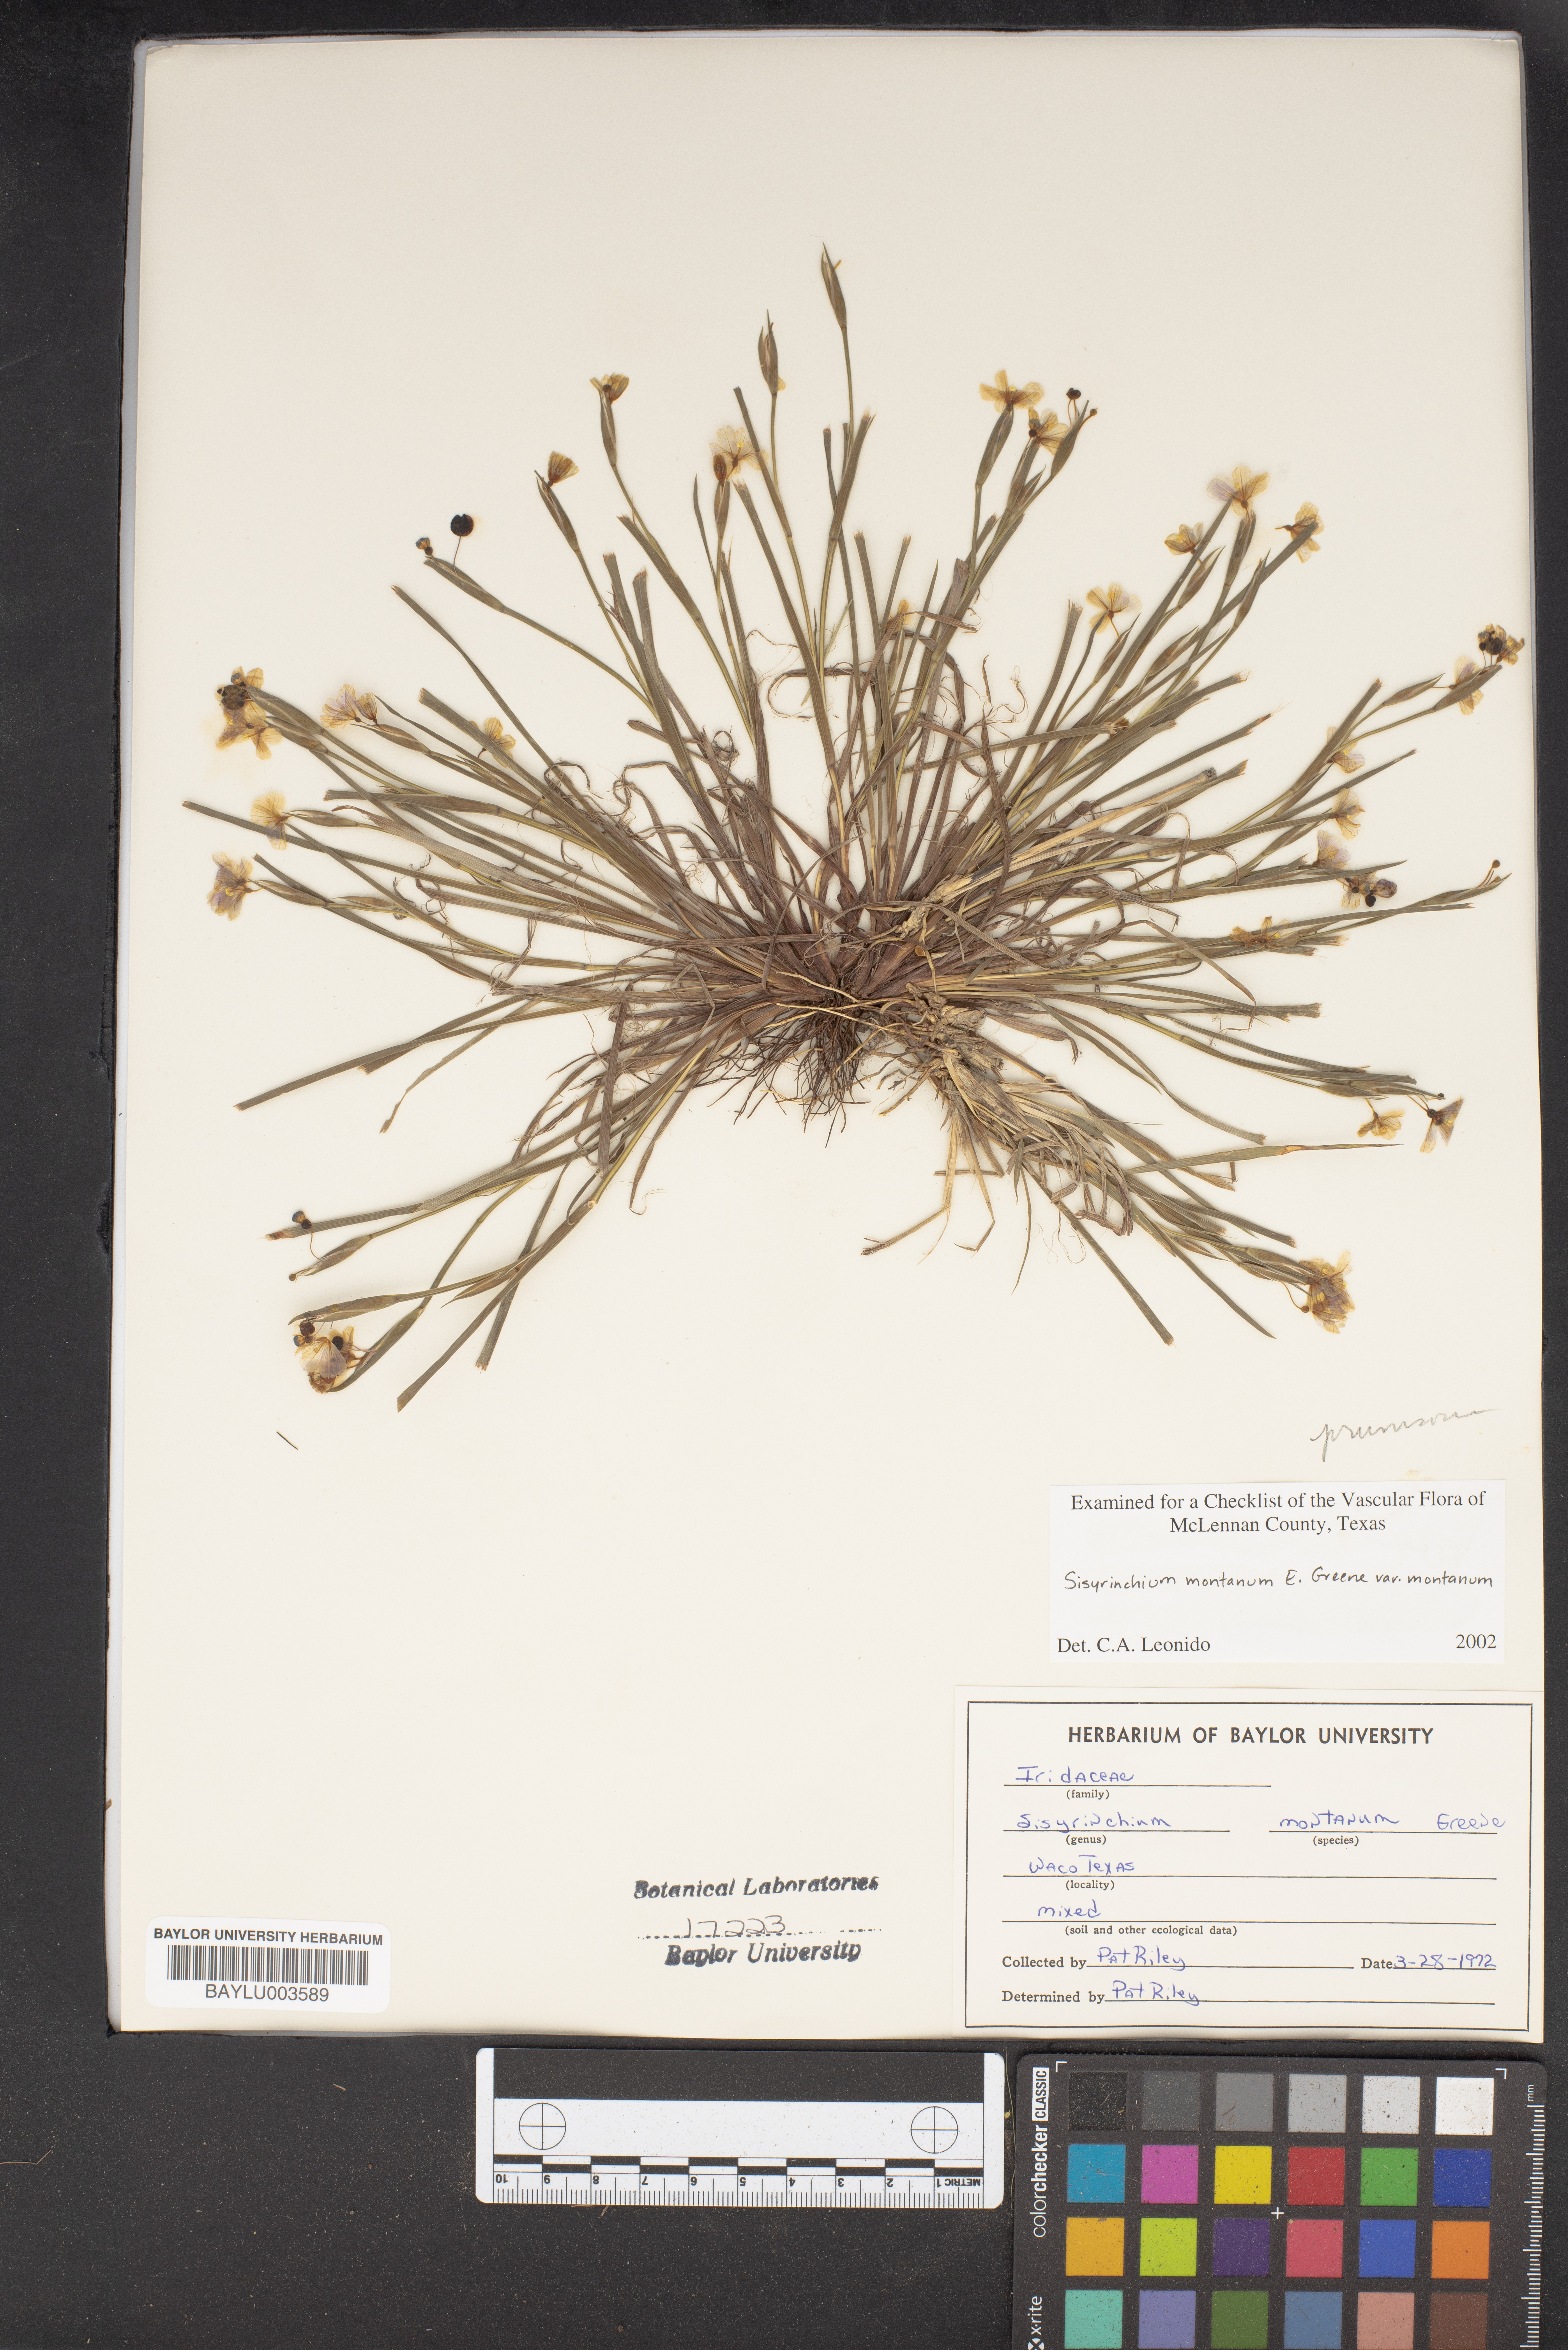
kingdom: Plantae
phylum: Tracheophyta
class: Liliopsida
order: Asparagales
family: Iridaceae
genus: Sisyrinchium
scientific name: Sisyrinchium montanum
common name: American blue-eyed-grass
